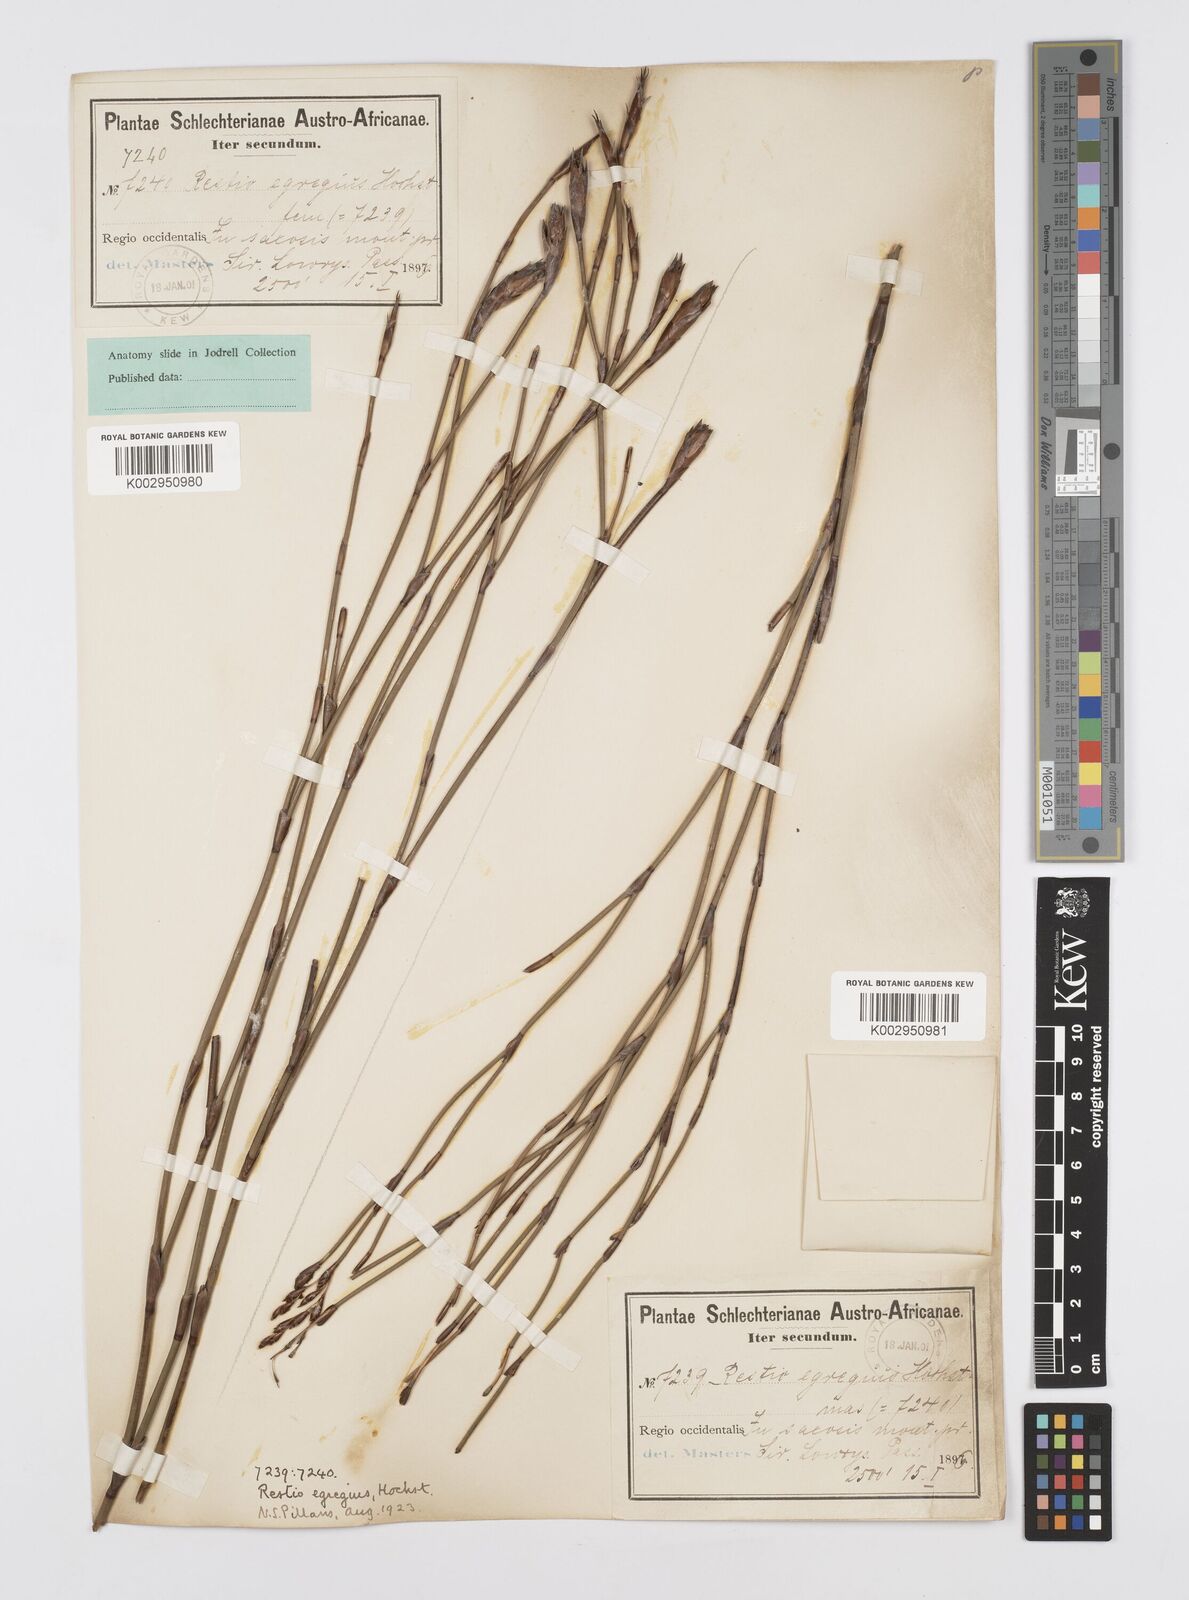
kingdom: Plantae
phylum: Tracheophyta
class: Liliopsida
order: Poales
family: Restionaceae
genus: Restio
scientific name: Restio egregius
